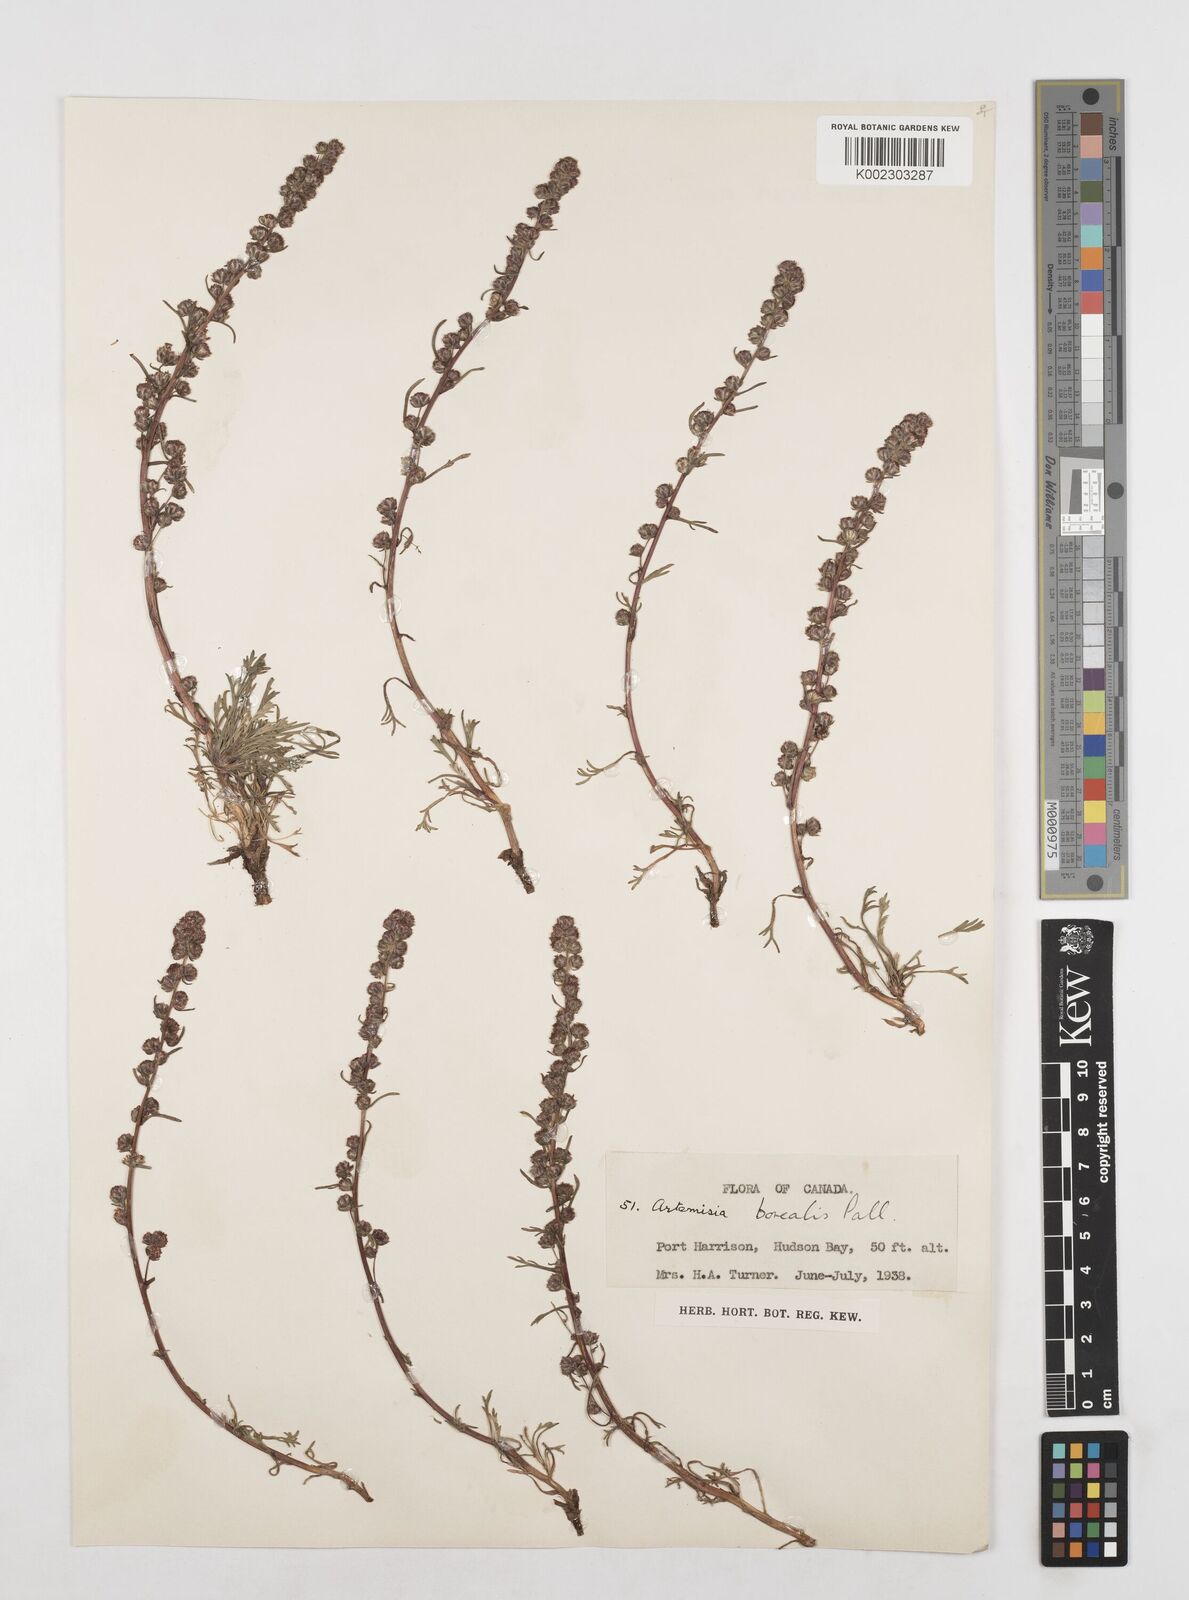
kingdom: Plantae
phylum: Tracheophyta
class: Magnoliopsida
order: Asterales
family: Asteraceae
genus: Artemisia
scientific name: Artemisia borealis
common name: Boreal sage
